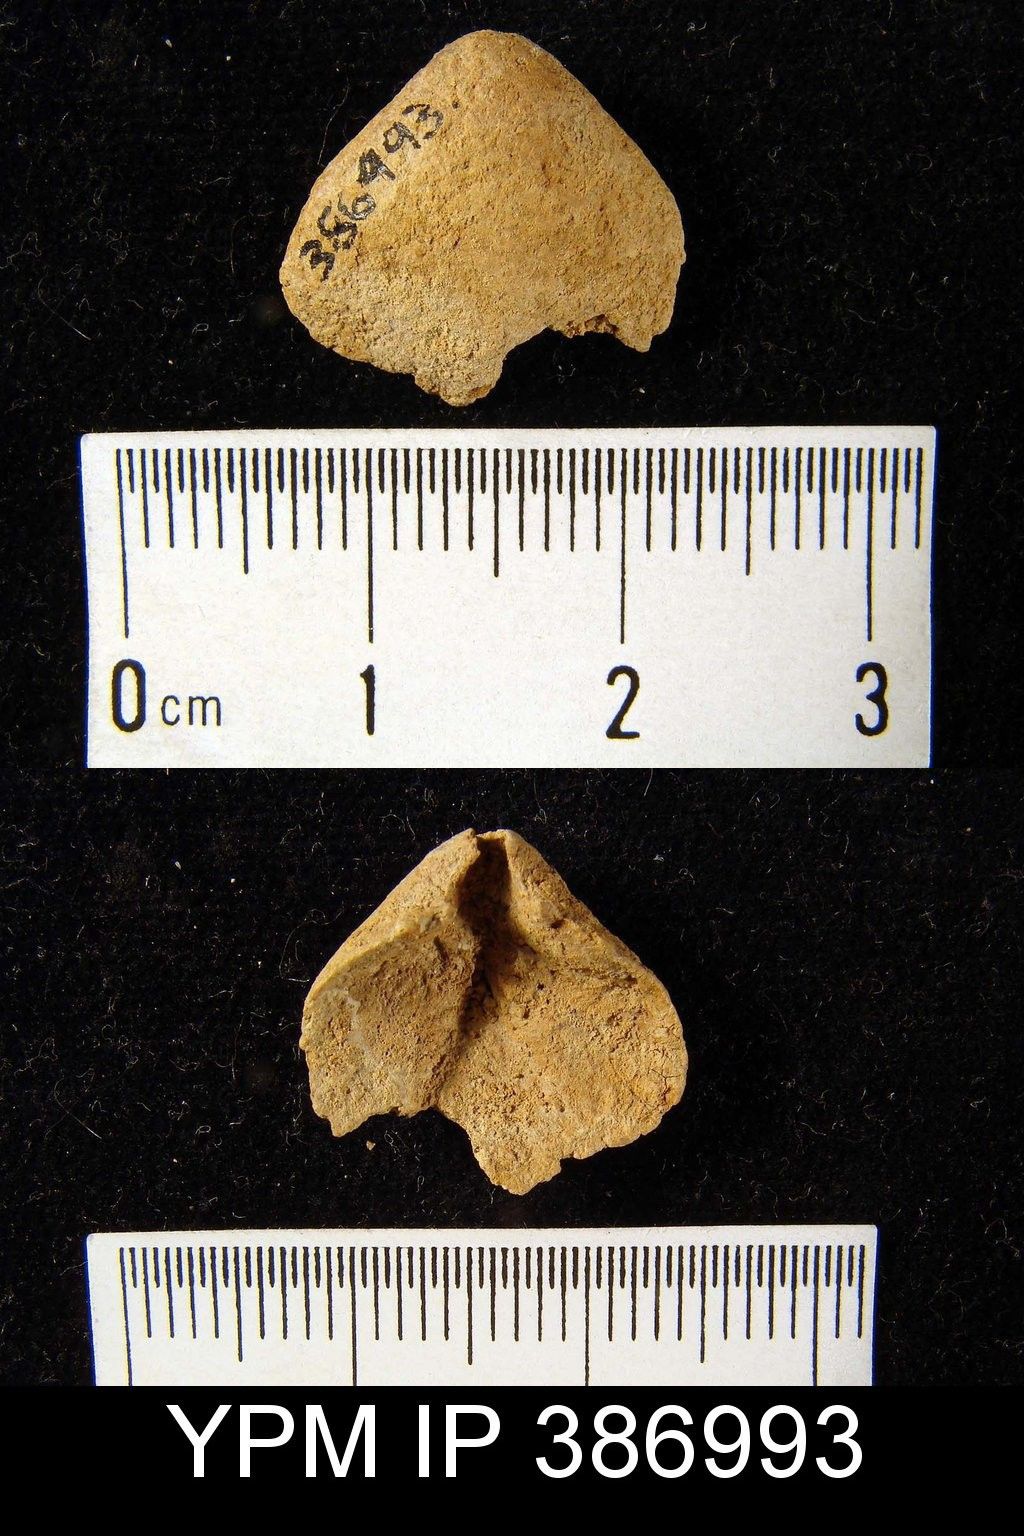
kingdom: Animalia
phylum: Brachiopoda
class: Rhynchonellata
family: Meristellidae
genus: Meristella
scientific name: Meristella
